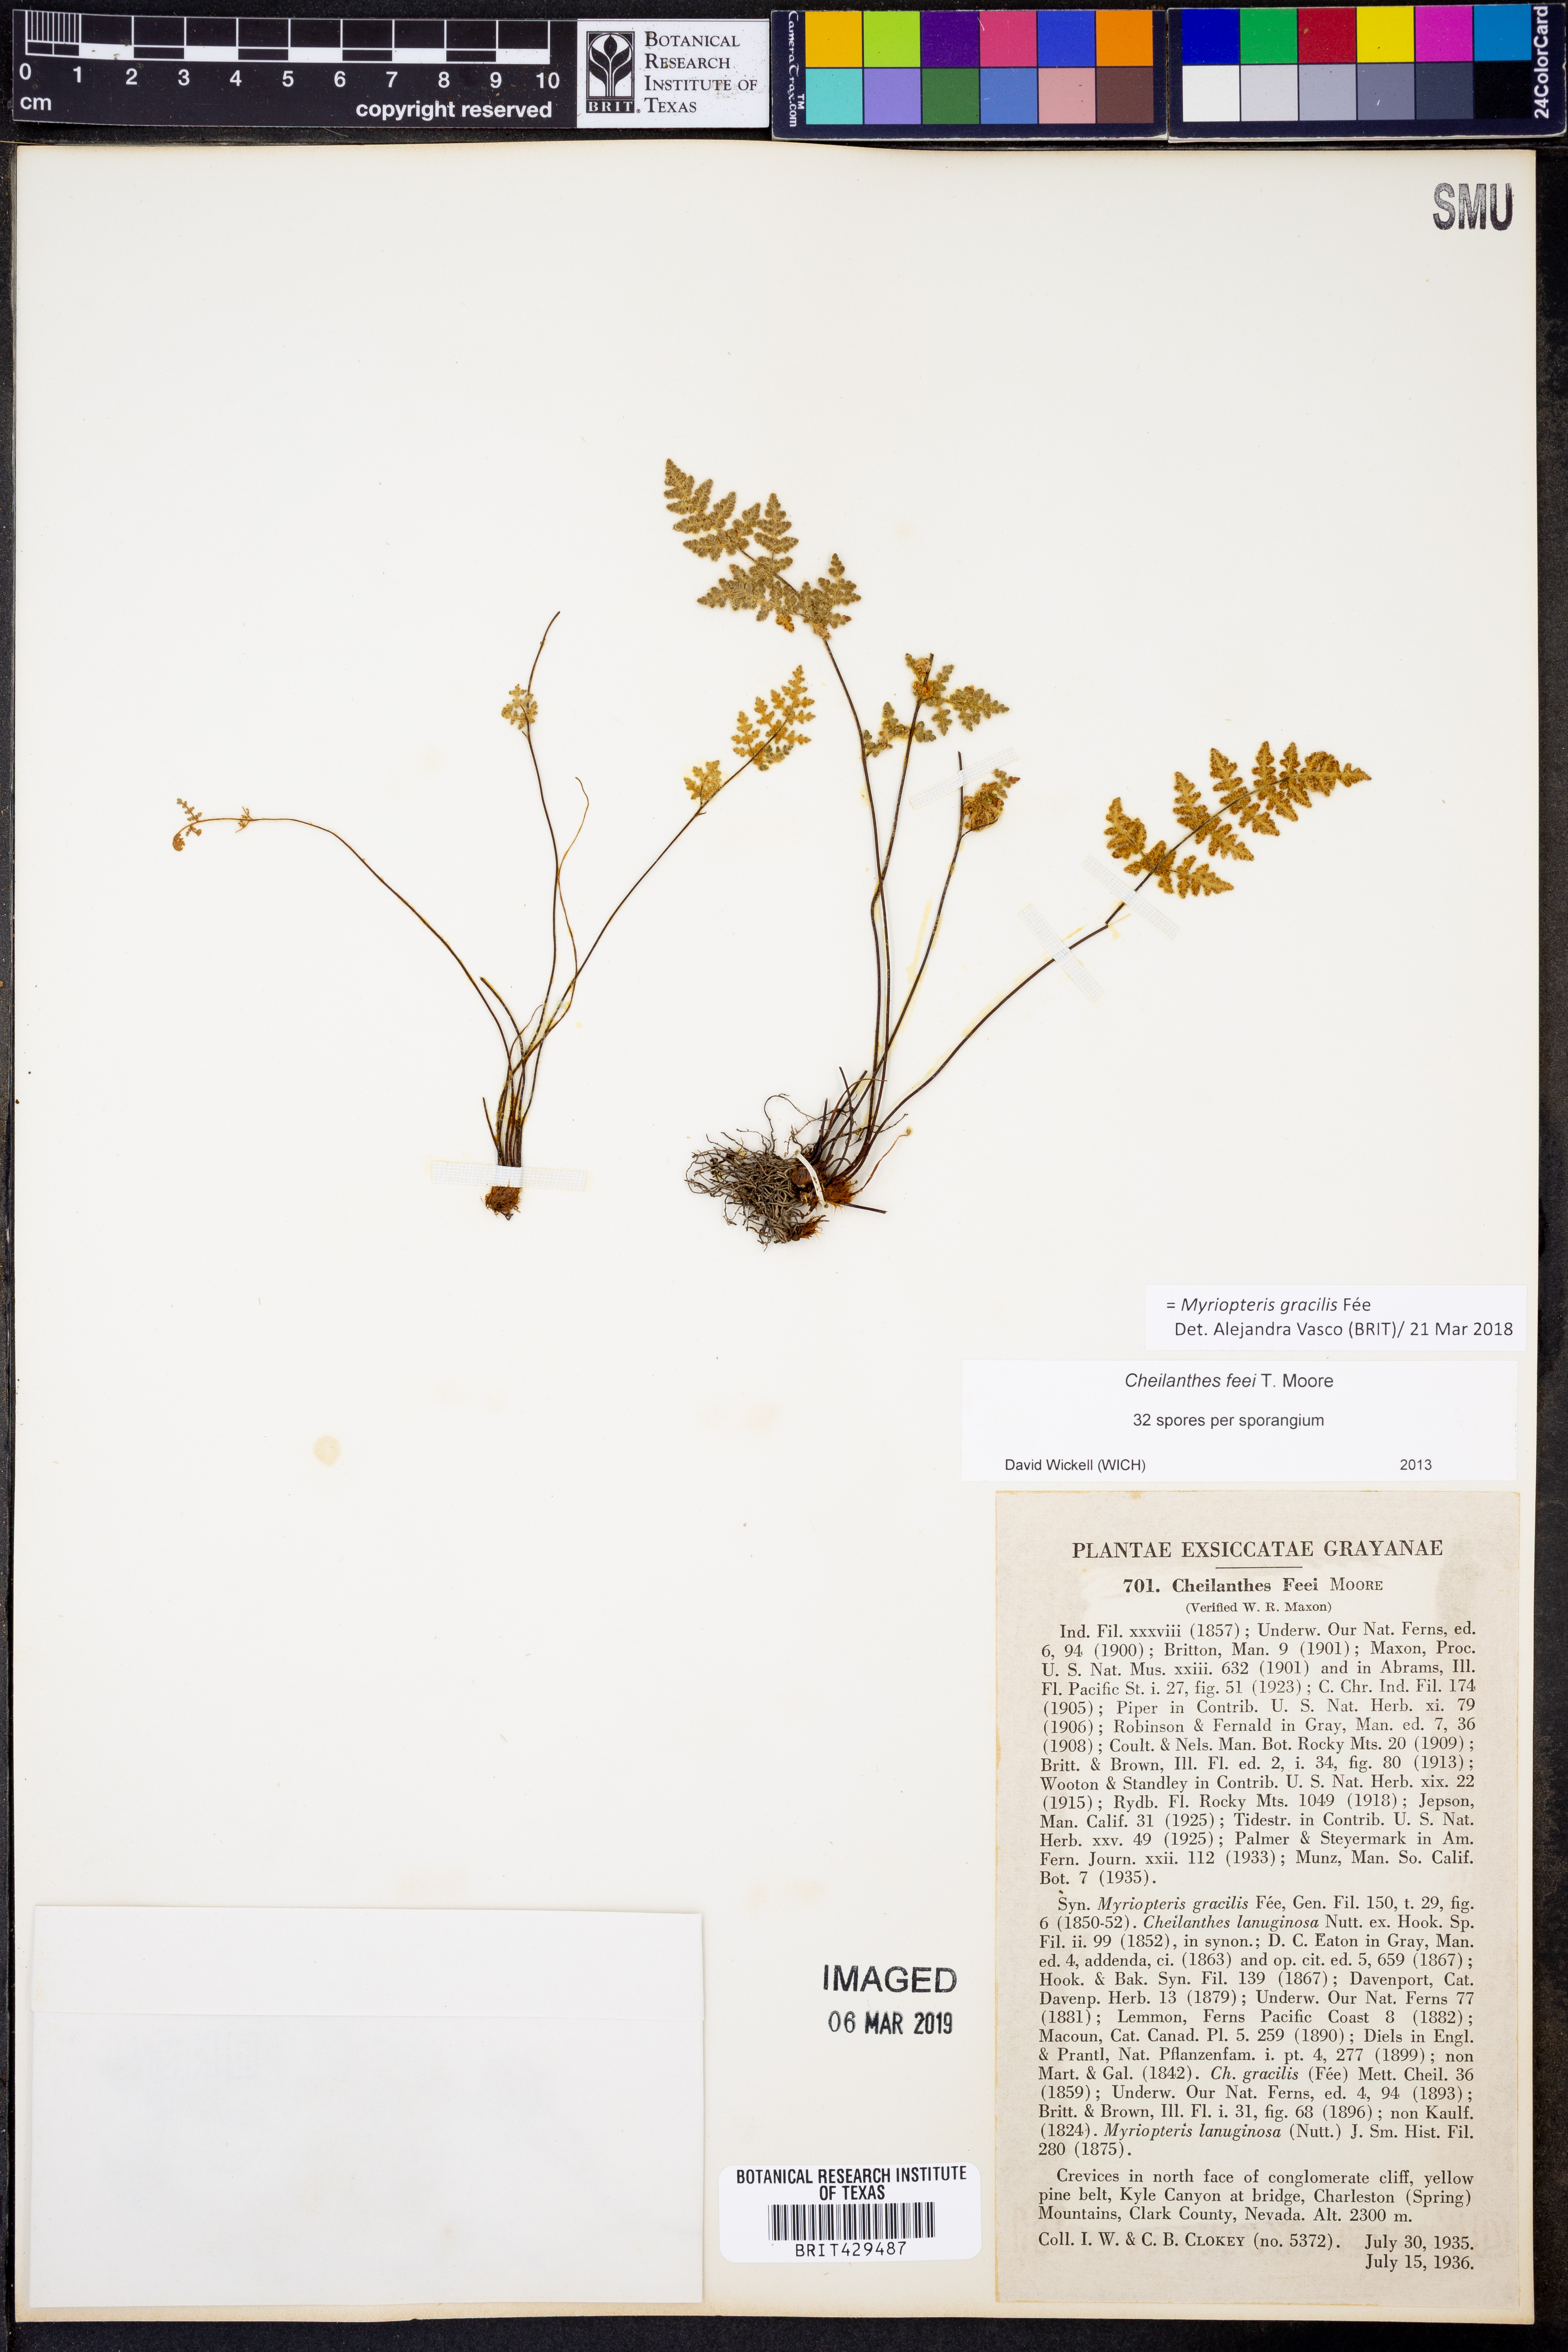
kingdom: Plantae
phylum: Tracheophyta
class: Polypodiopsida
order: Polypodiales
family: Pteridaceae
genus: Myriopteris
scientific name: Myriopteris gracilis
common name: Fee's lip fern
